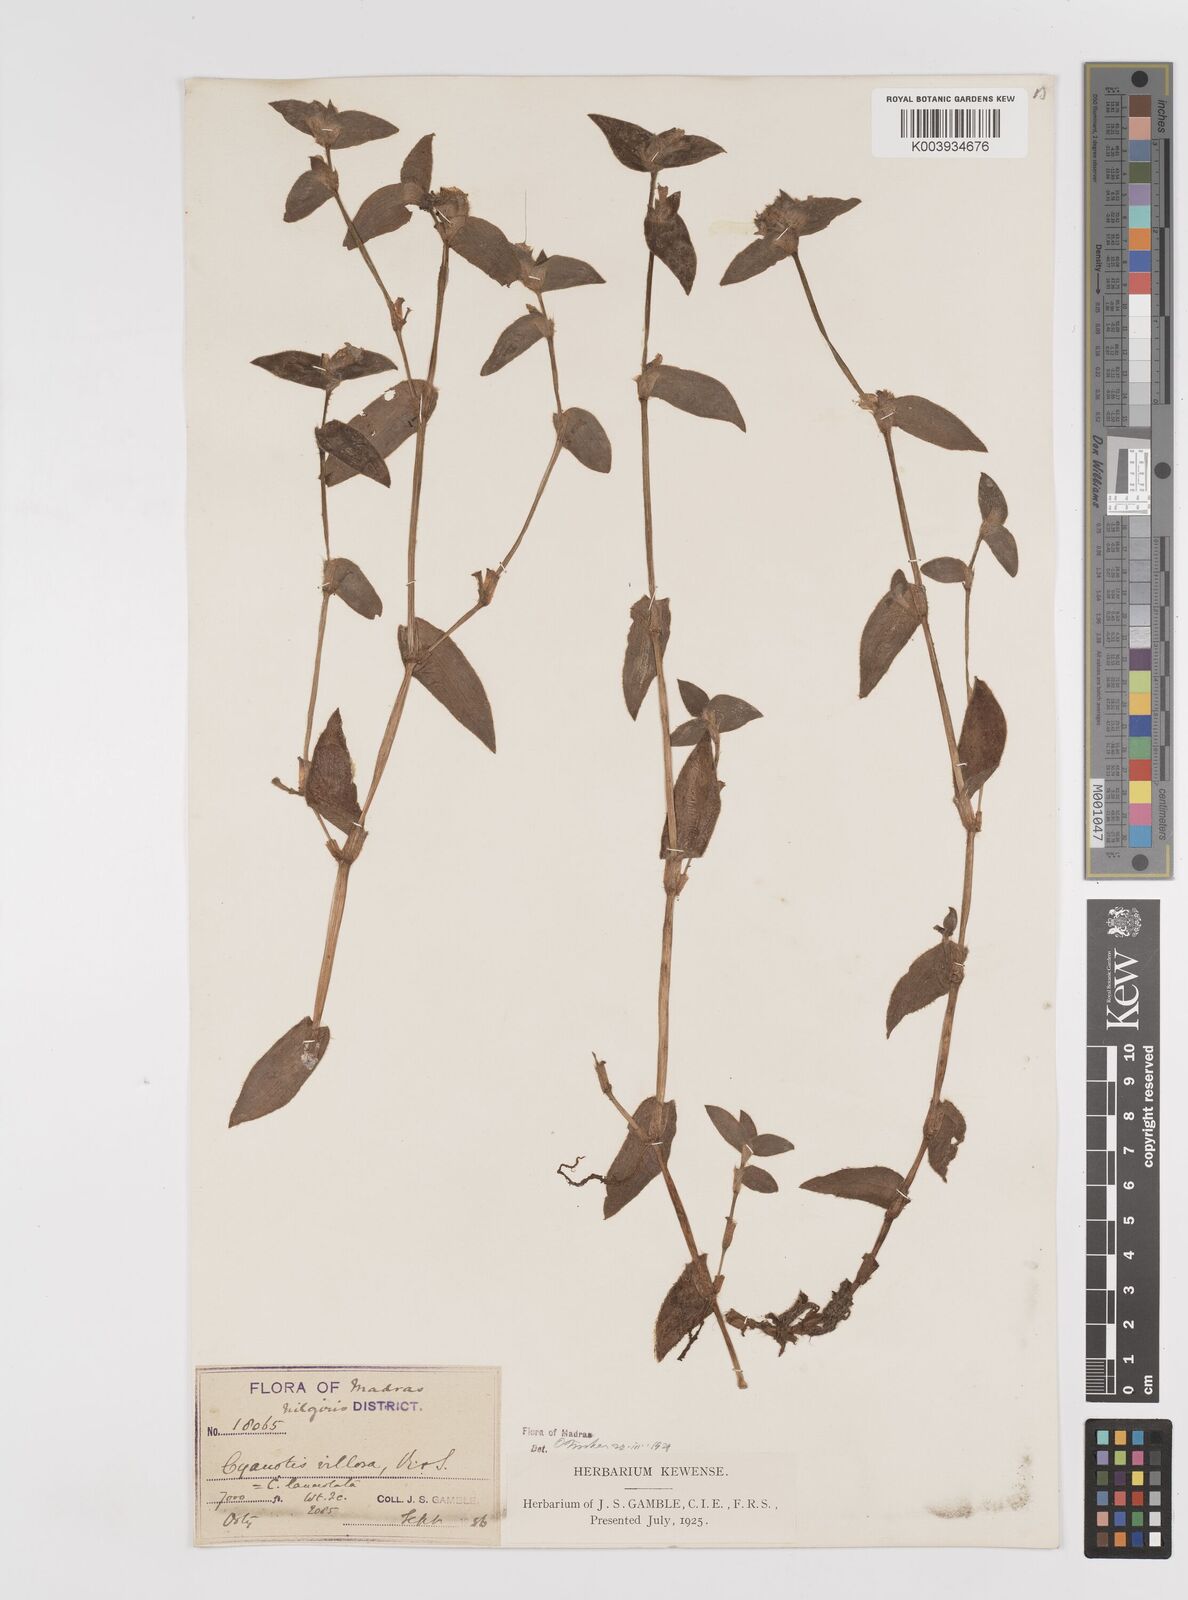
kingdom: Plantae
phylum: Tracheophyta
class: Liliopsida
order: Commelinales
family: Commelinaceae
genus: Cyanotis
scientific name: Cyanotis villosa
